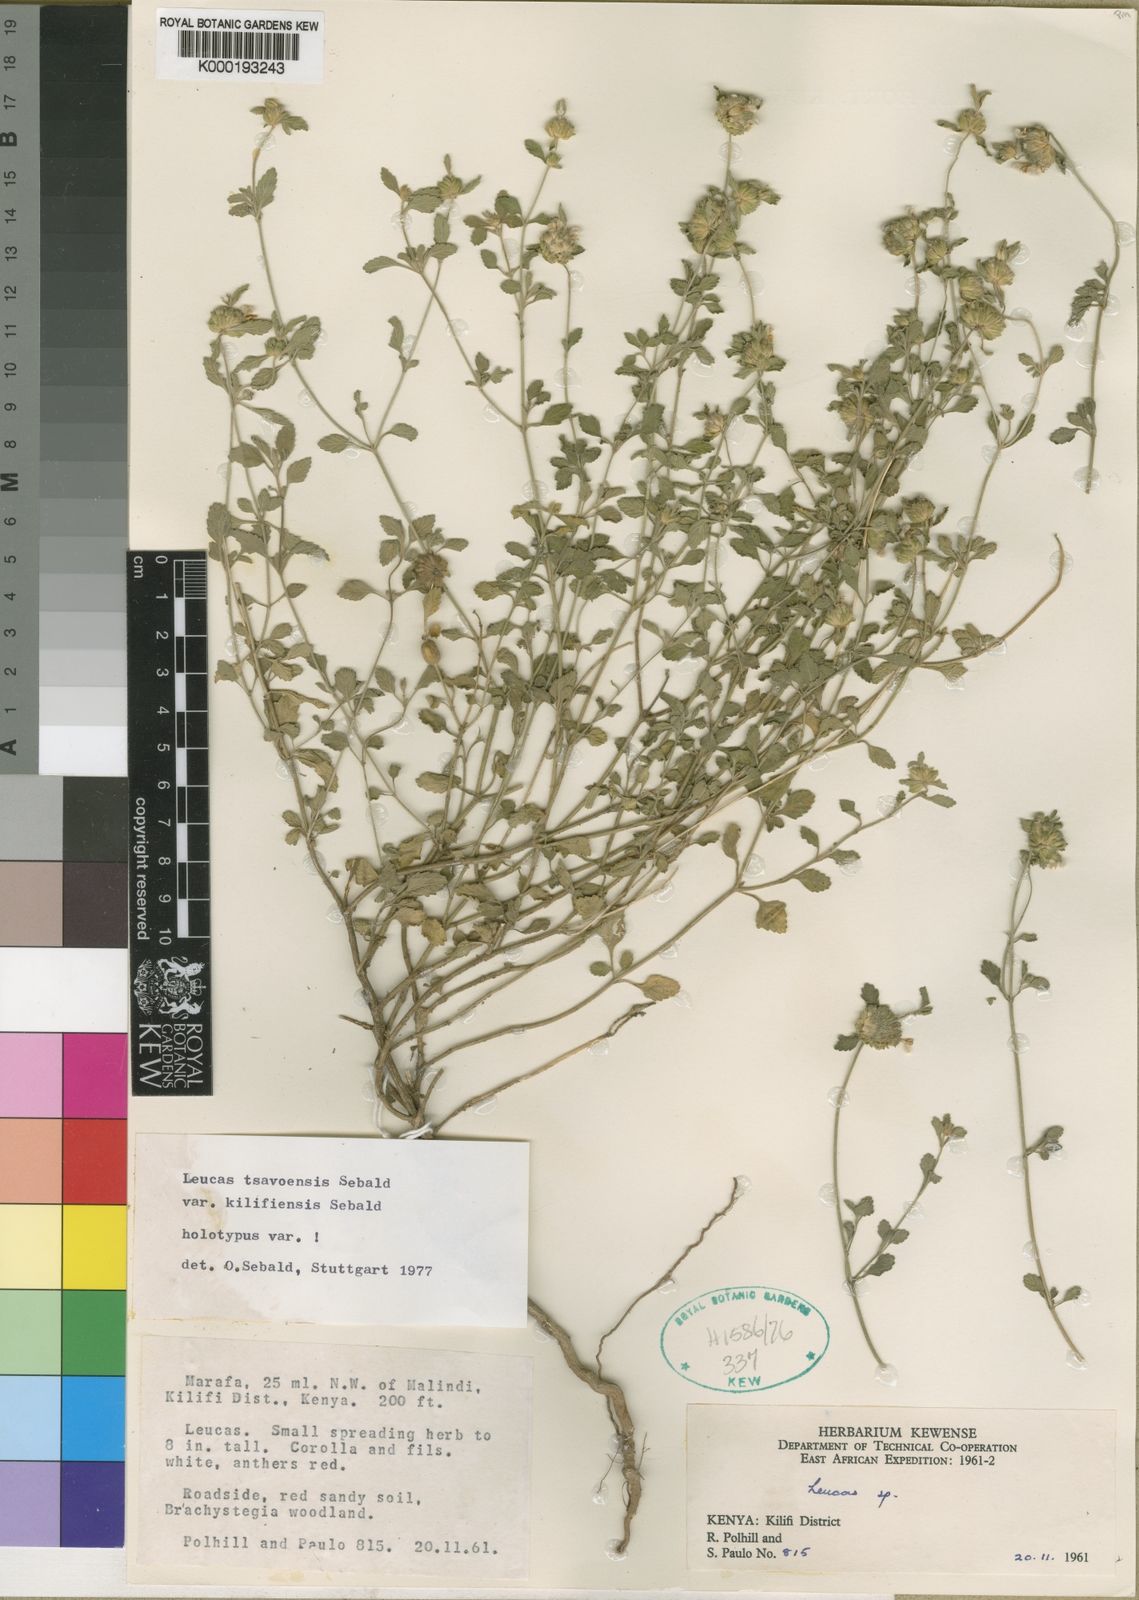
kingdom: Plantae
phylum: Tracheophyta
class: Magnoliopsida
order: Lamiales
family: Lamiaceae
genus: Leucas
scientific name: Leucas tsavoensis
